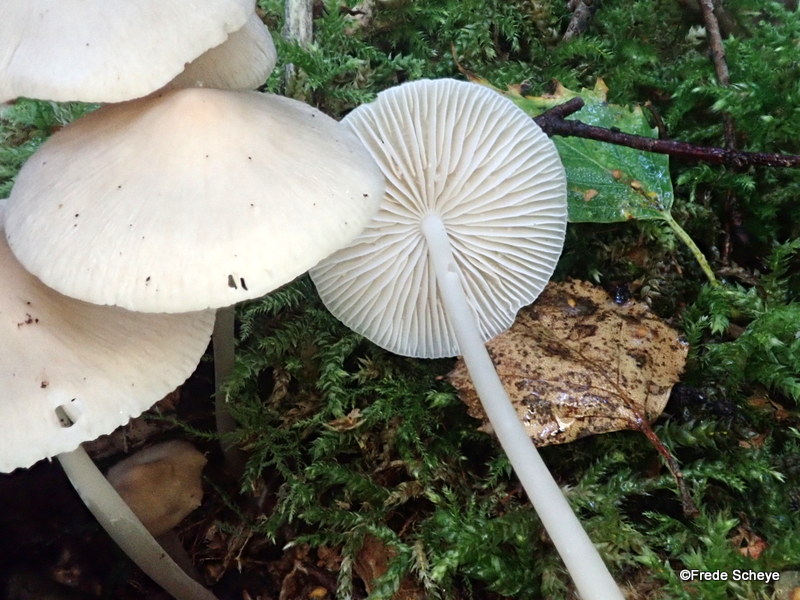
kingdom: Fungi
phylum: Basidiomycota
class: Agaricomycetes
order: Agaricales
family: Mycenaceae
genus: Mycena
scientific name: Mycena galericulata
